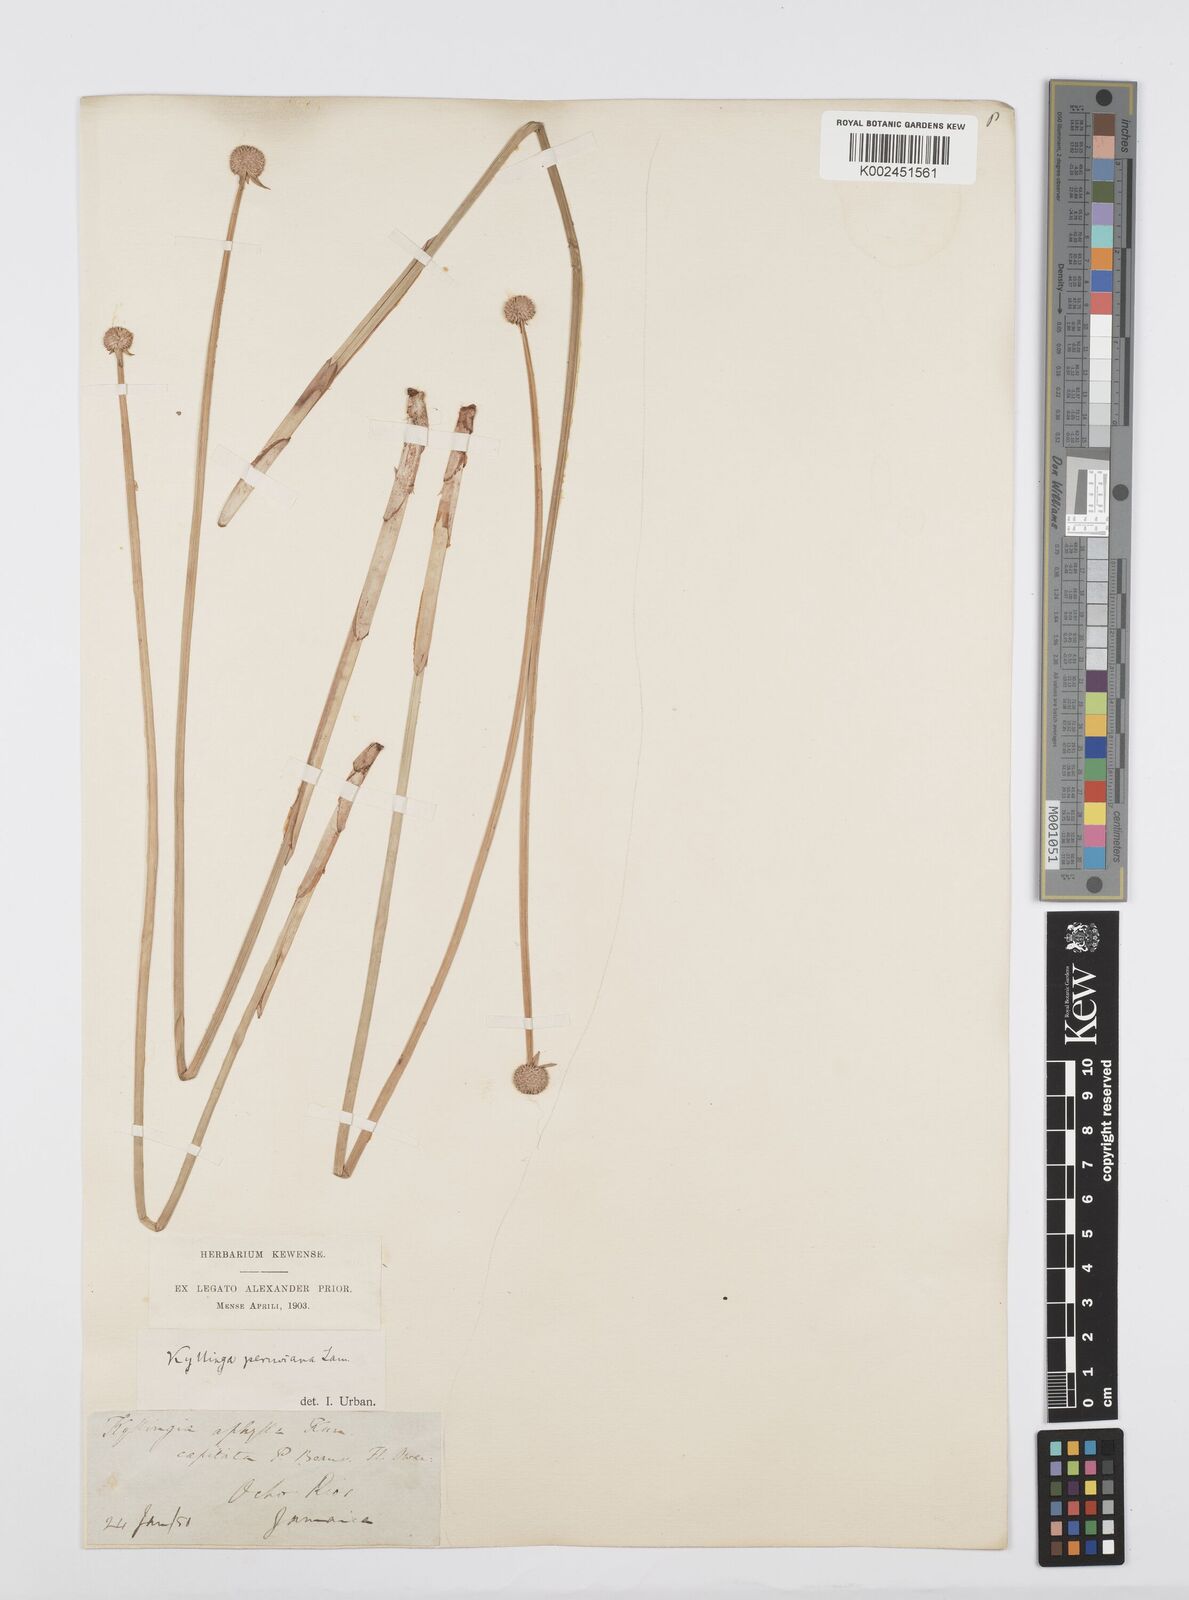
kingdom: Plantae
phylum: Tracheophyta
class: Liliopsida
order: Poales
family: Cyperaceae
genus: Cyperus
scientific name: Cyperus obtusatus
